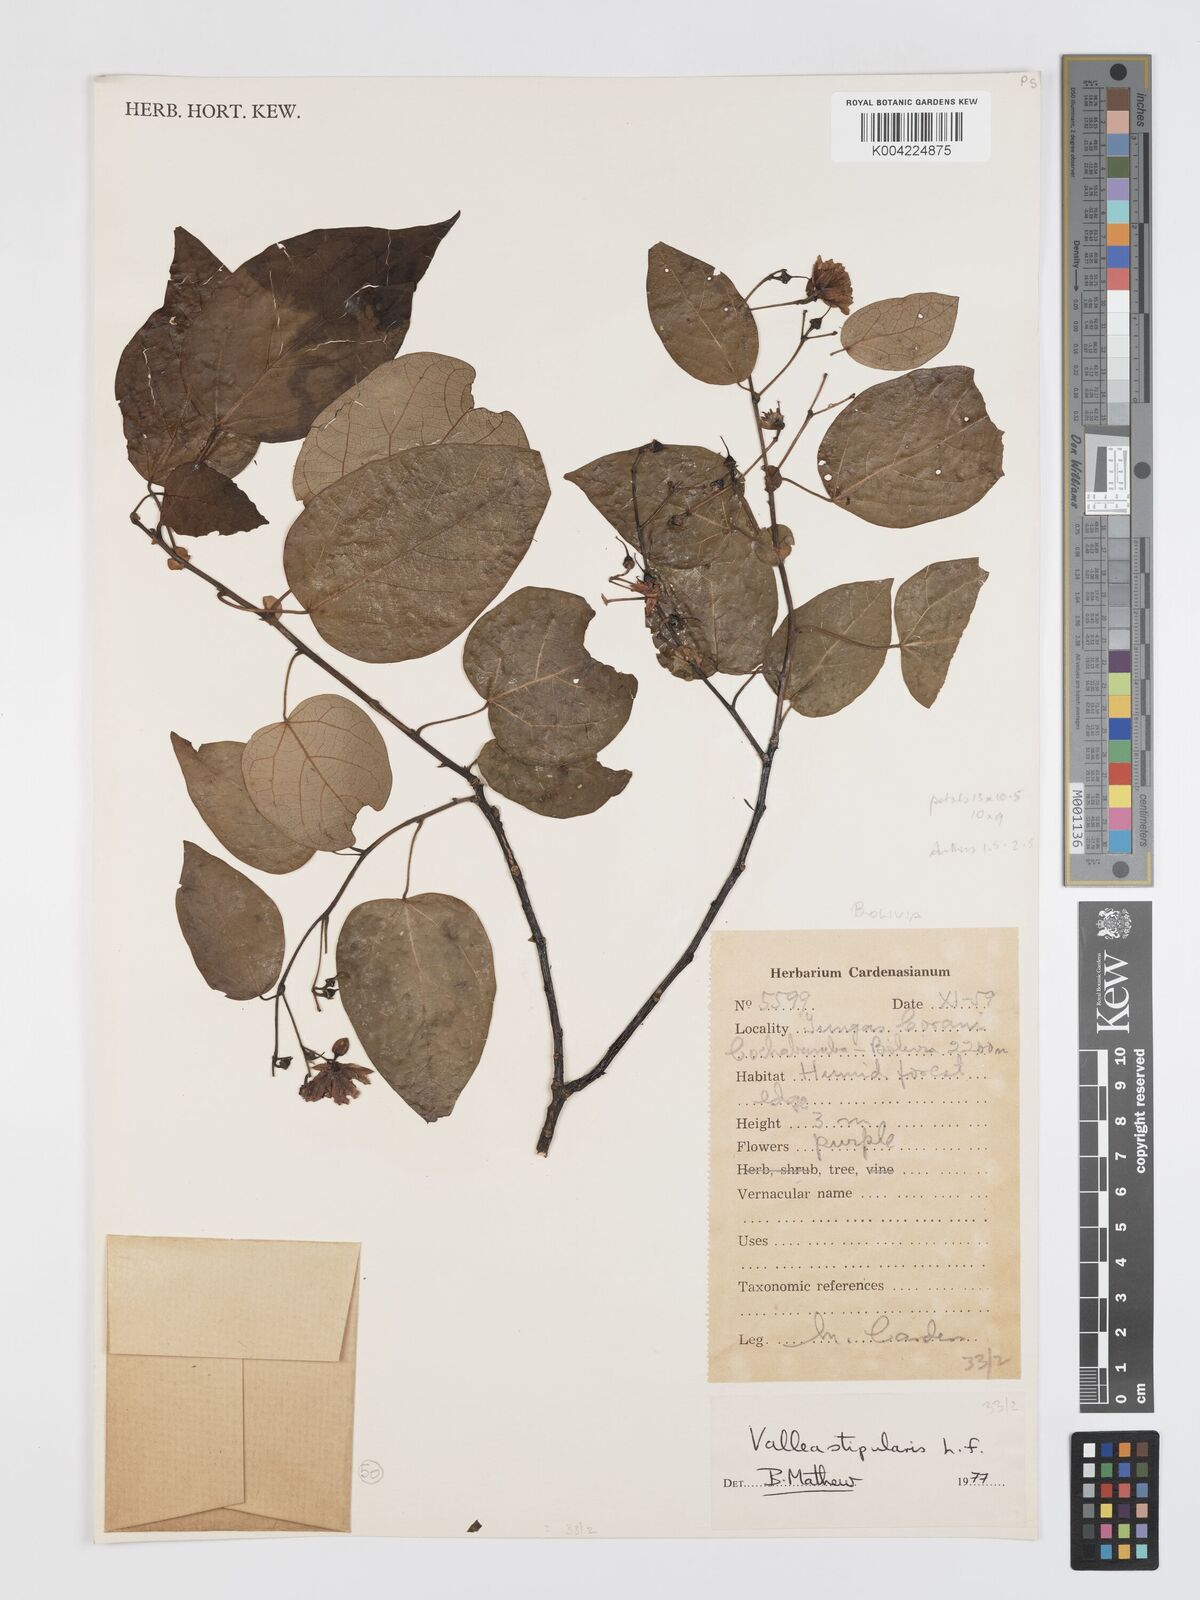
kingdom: Plantae
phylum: Tracheophyta
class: Magnoliopsida
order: Oxalidales
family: Elaeocarpaceae
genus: Vallea
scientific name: Vallea stipularis
